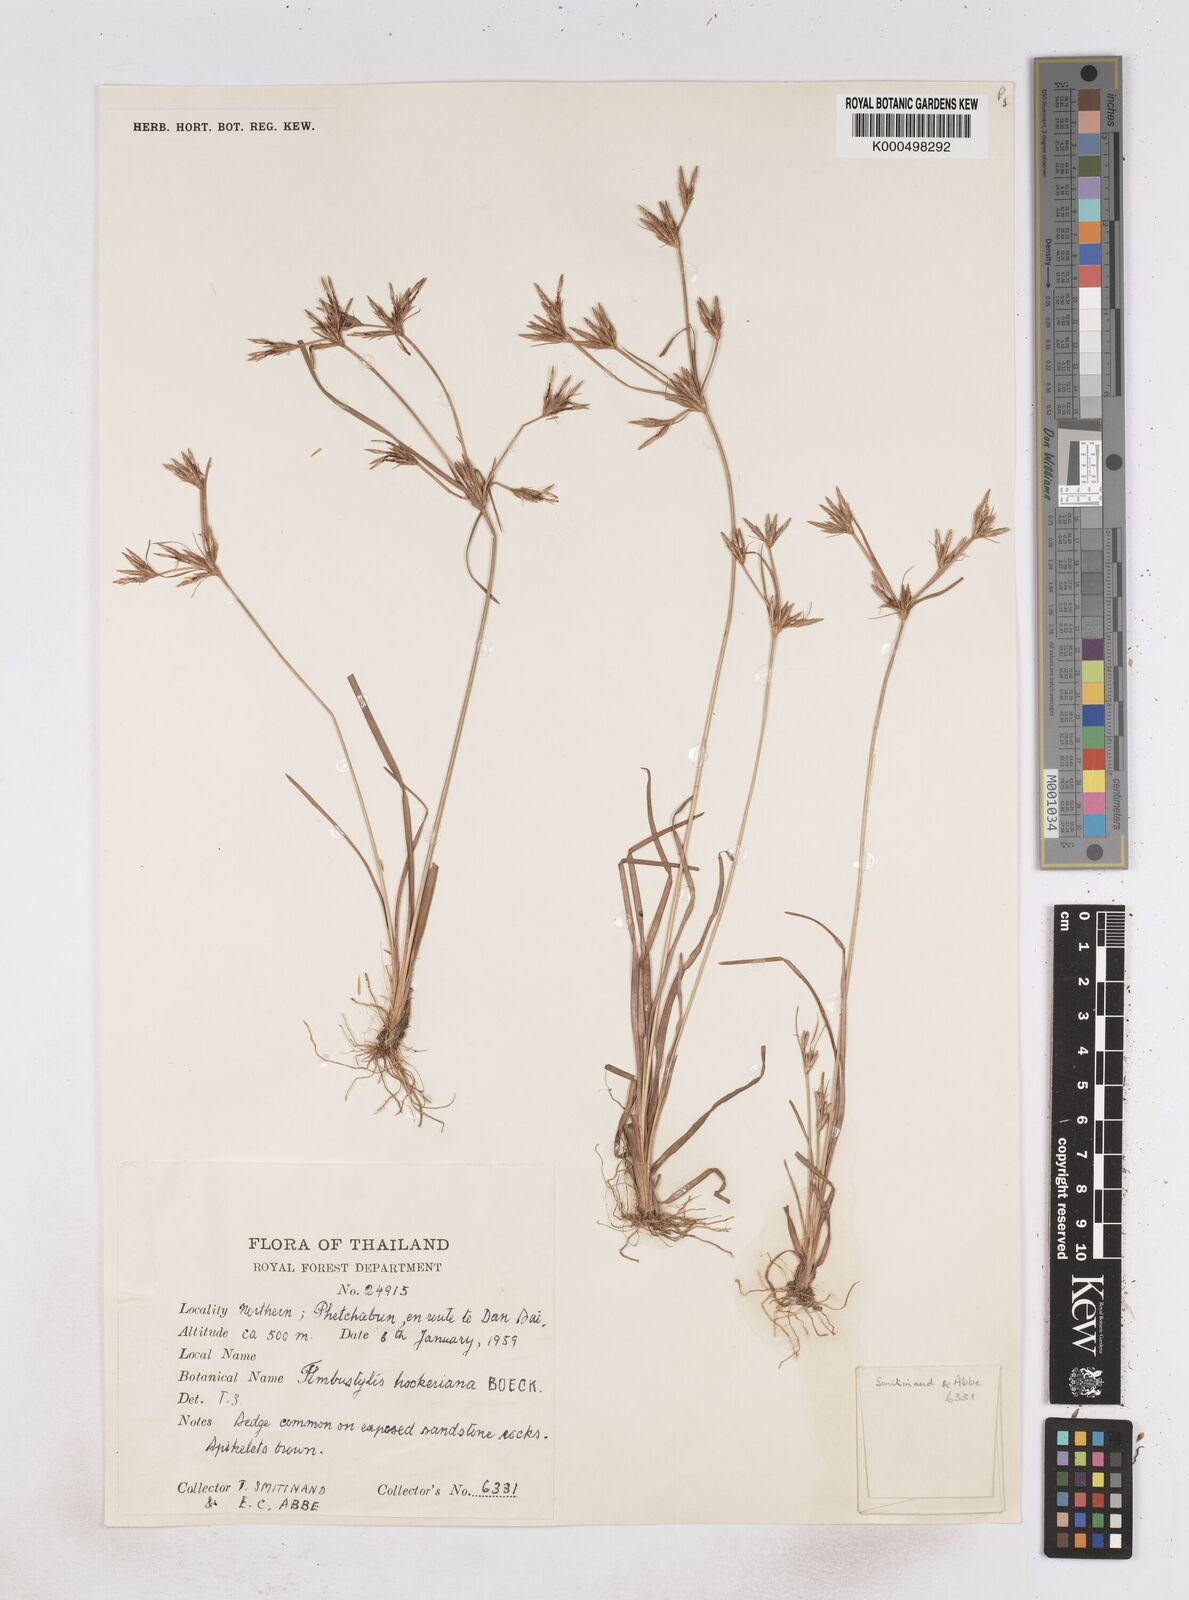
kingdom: Plantae
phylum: Tracheophyta
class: Liliopsida
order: Poales
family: Cyperaceae
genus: Fimbristylis
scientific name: Fimbristylis hookeriana
